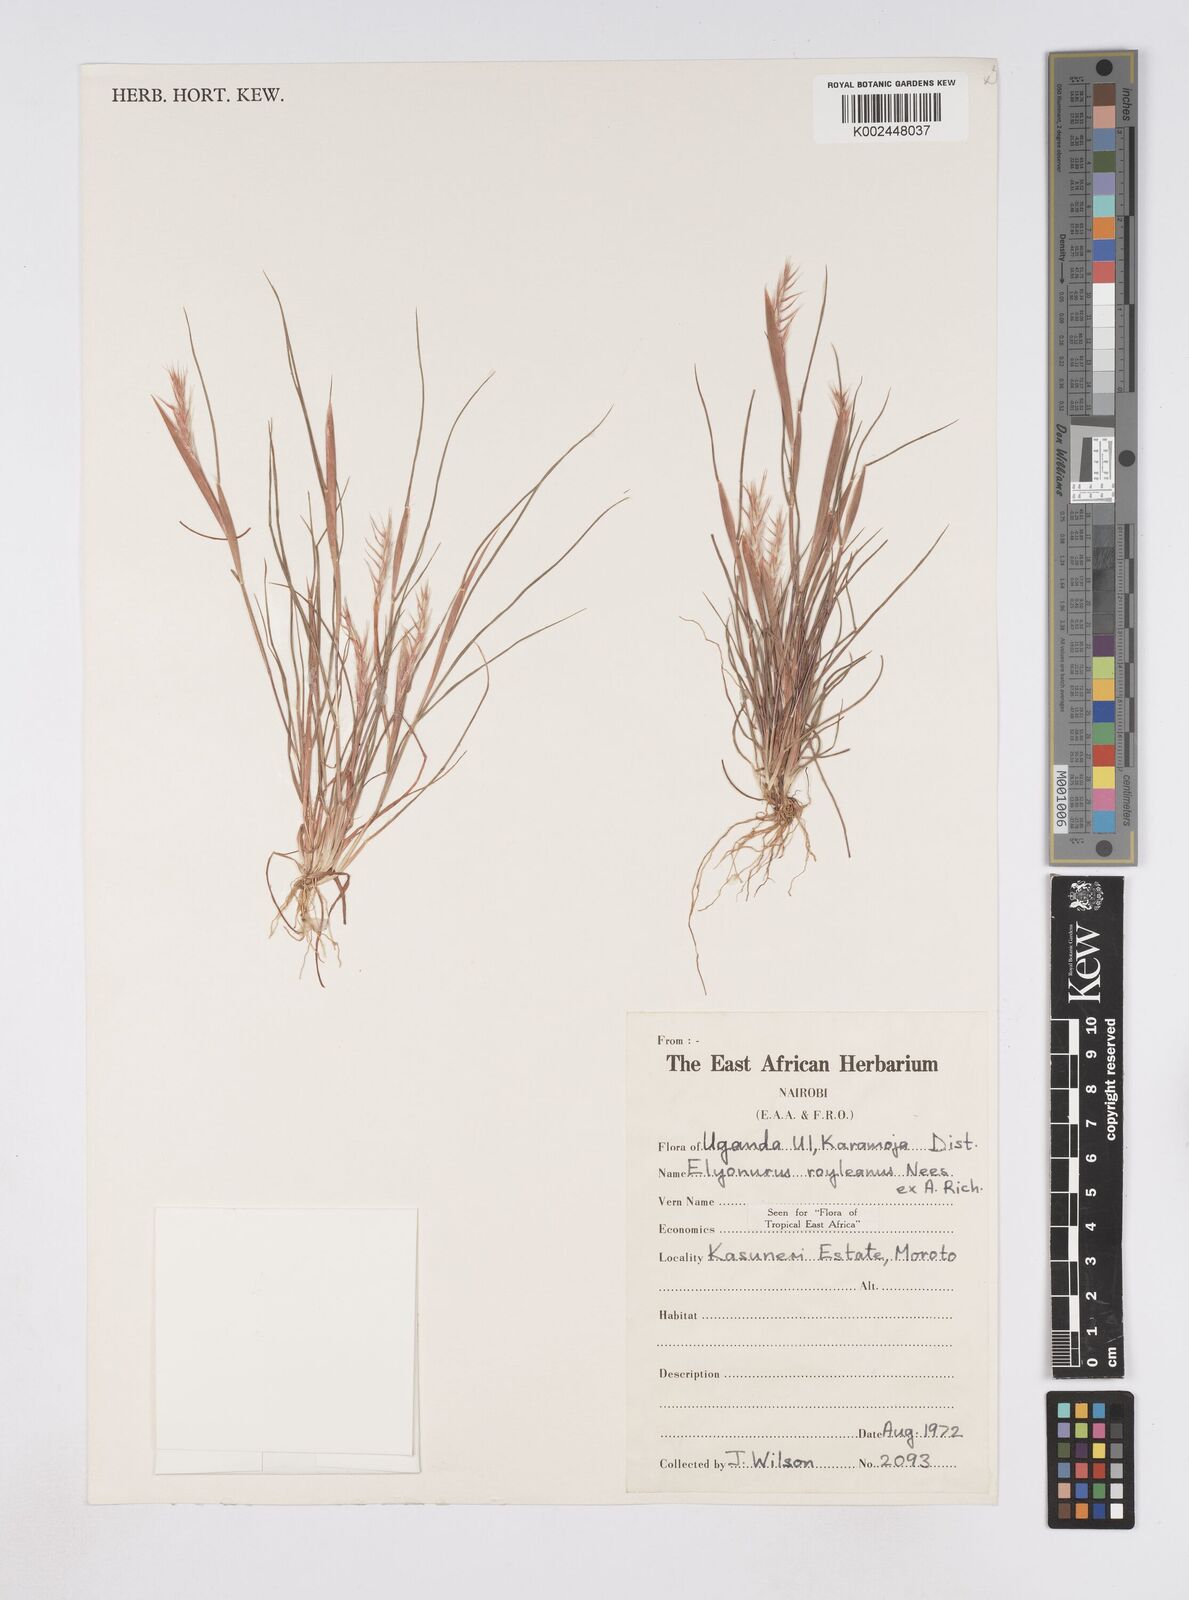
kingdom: Plantae
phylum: Tracheophyta
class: Liliopsida
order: Poales
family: Poaceae
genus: Elionurus
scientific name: Elionurus royleanus
